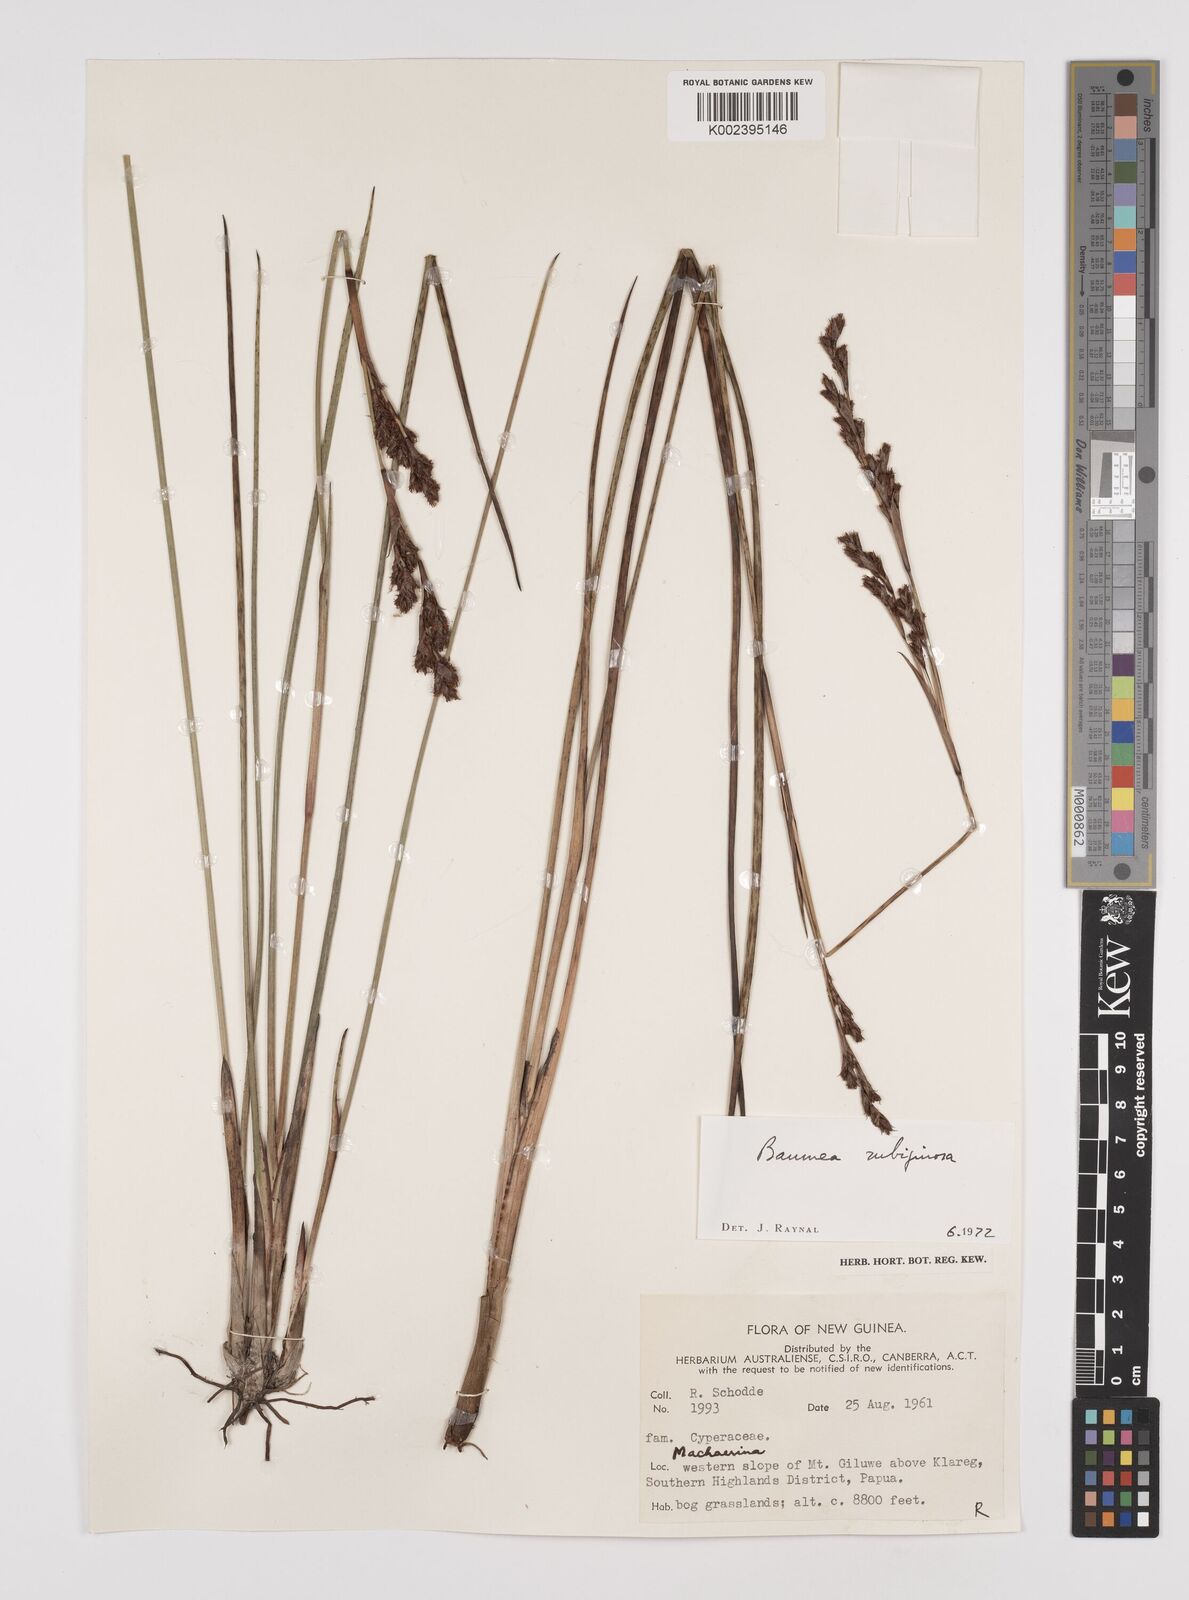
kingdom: Plantae
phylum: Tracheophyta
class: Liliopsida
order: Poales
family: Cyperaceae
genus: Machaerina
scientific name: Machaerina rubiginosa
